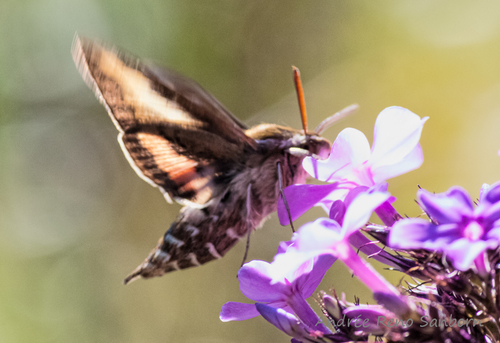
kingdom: Animalia
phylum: Arthropoda
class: Insecta
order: Lepidoptera
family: Sphingidae
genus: Hyles
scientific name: Hyles gallii
